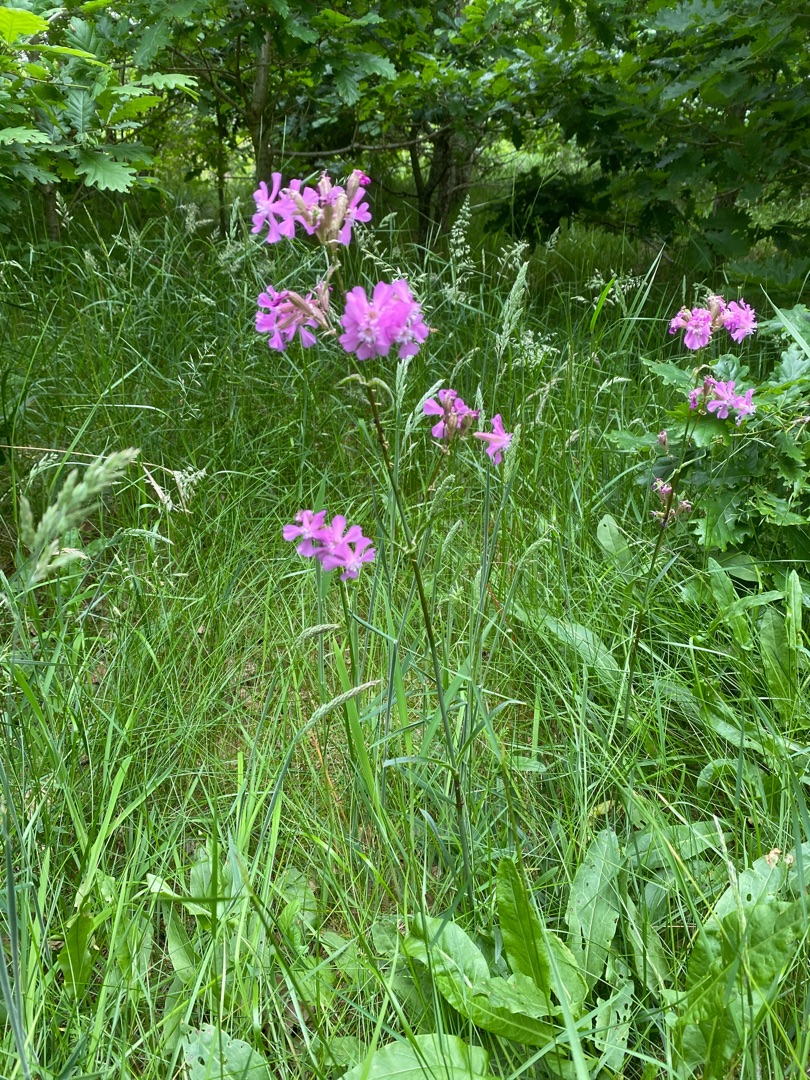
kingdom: Plantae
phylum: Tracheophyta
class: Magnoliopsida
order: Caryophyllales
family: Caryophyllaceae
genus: Viscaria
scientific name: Viscaria vulgaris
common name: Tjærenellike
